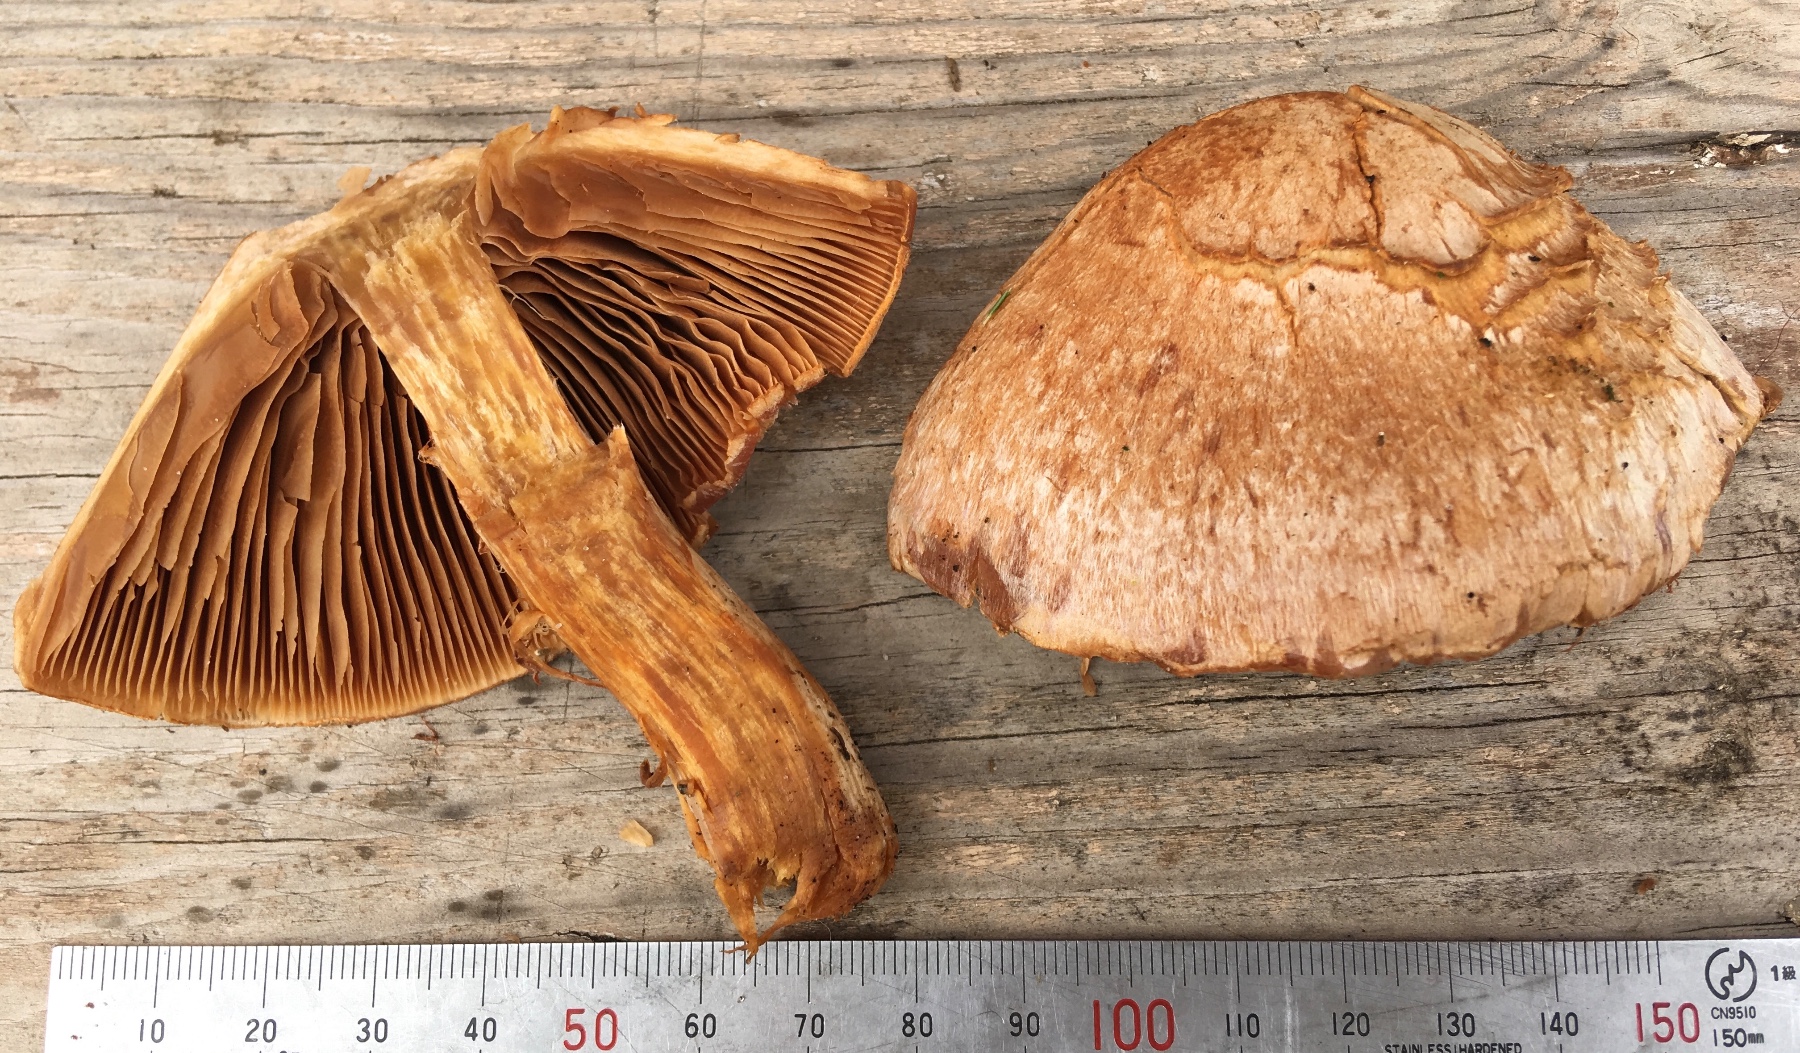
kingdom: Fungi
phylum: Basidiomycota
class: Agaricomycetes
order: Agaricales
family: Cortinariaceae
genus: Cortinarius
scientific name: Cortinarius traganus
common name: safrankødet slørhat
